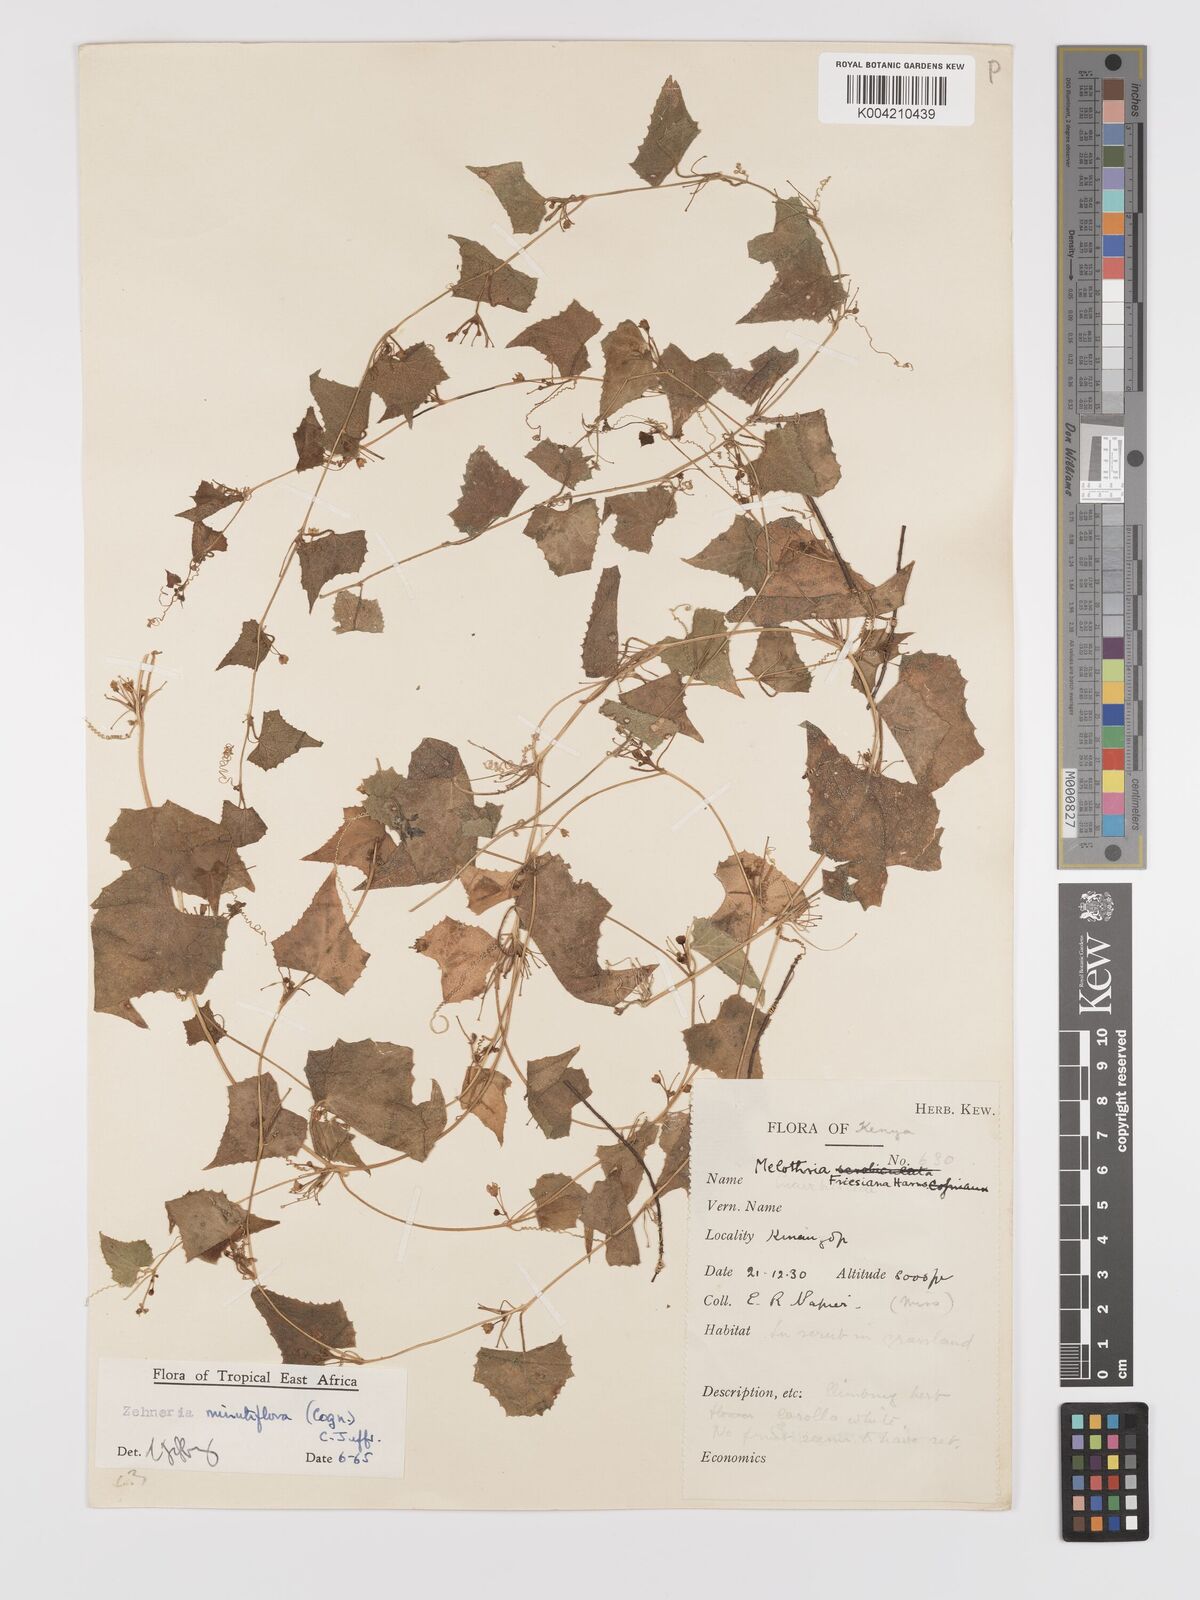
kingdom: Plantae
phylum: Tracheophyta
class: Magnoliopsida
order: Cucurbitales
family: Cucurbitaceae
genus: Zehneria
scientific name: Zehneria minutiflora
